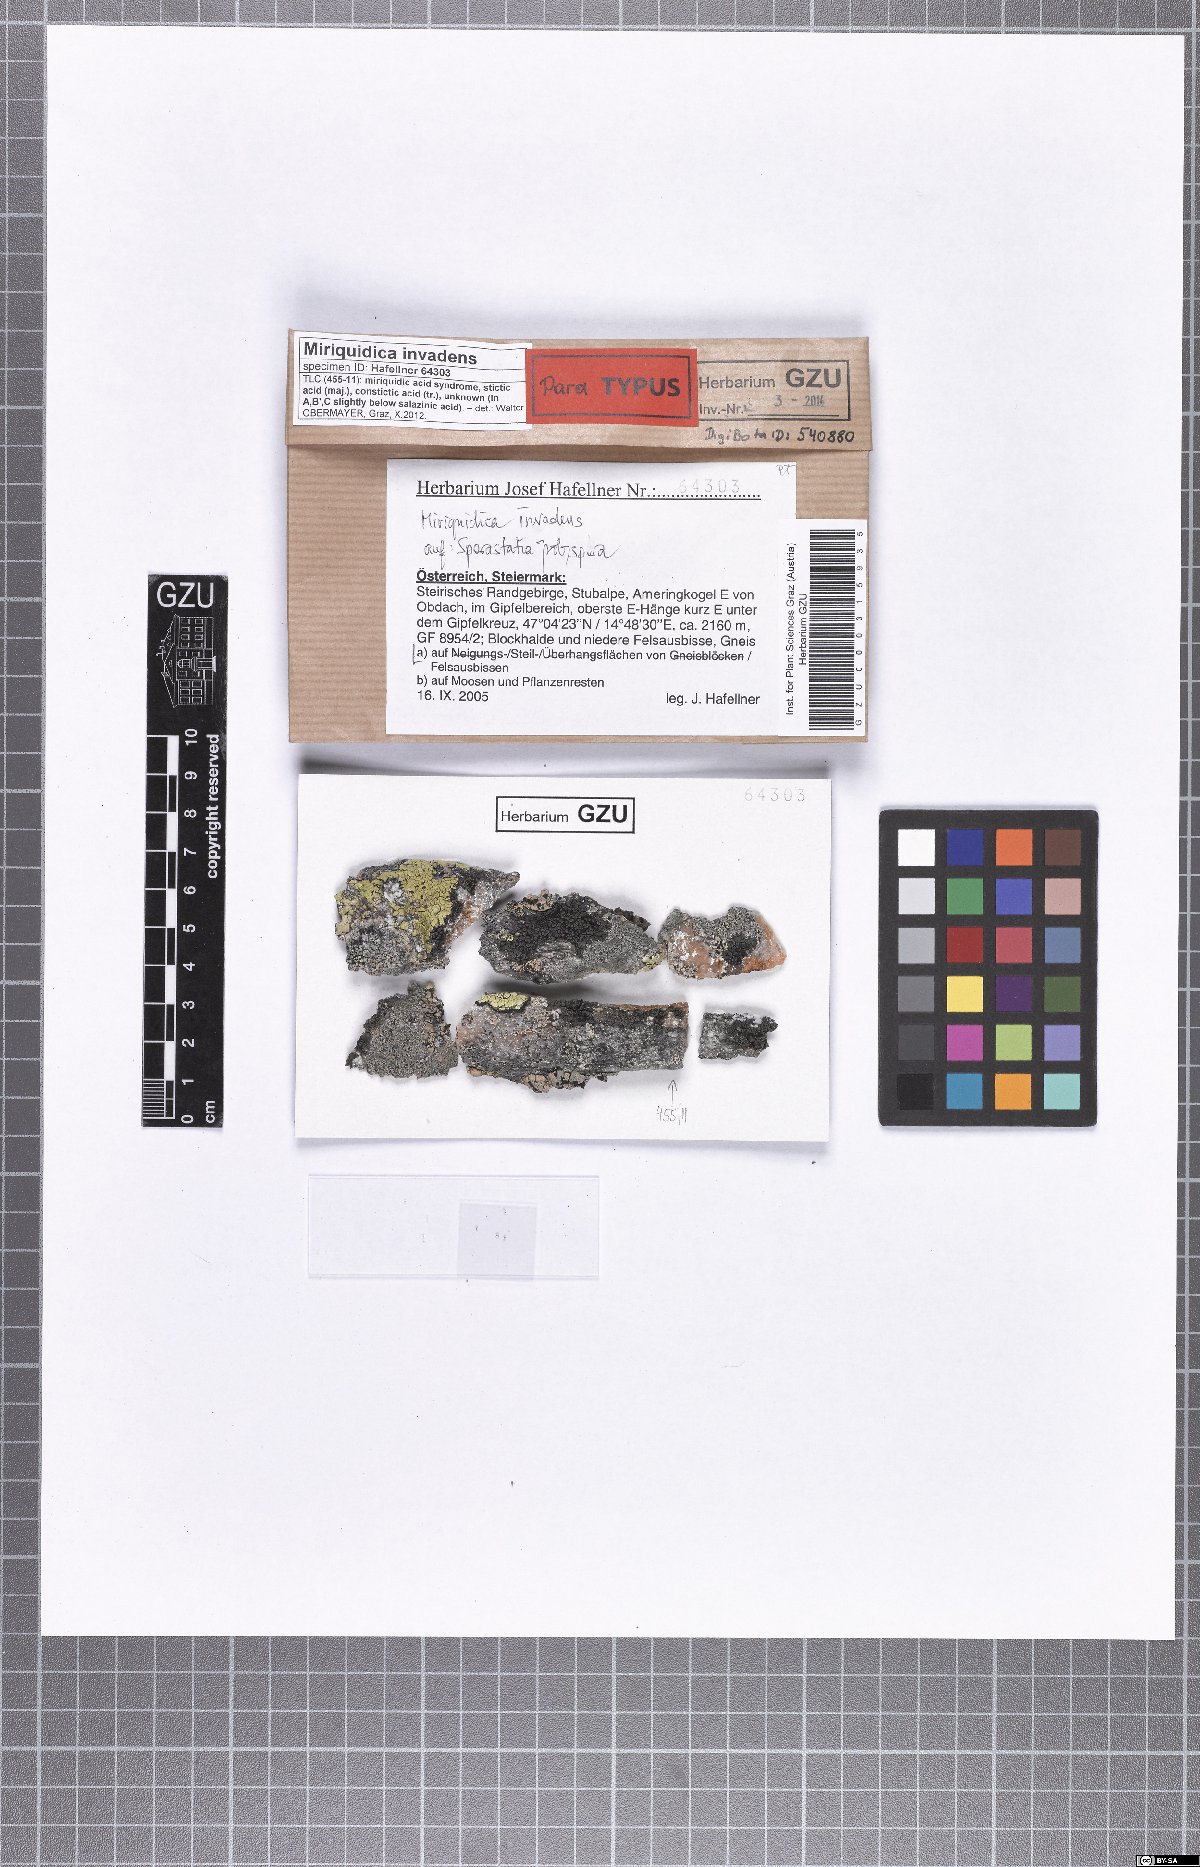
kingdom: Fungi
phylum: Ascomycota
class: Lecanoromycetes
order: Lecanorales
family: Lecanoraceae
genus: Miriquidica
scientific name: Miriquidica invadens
